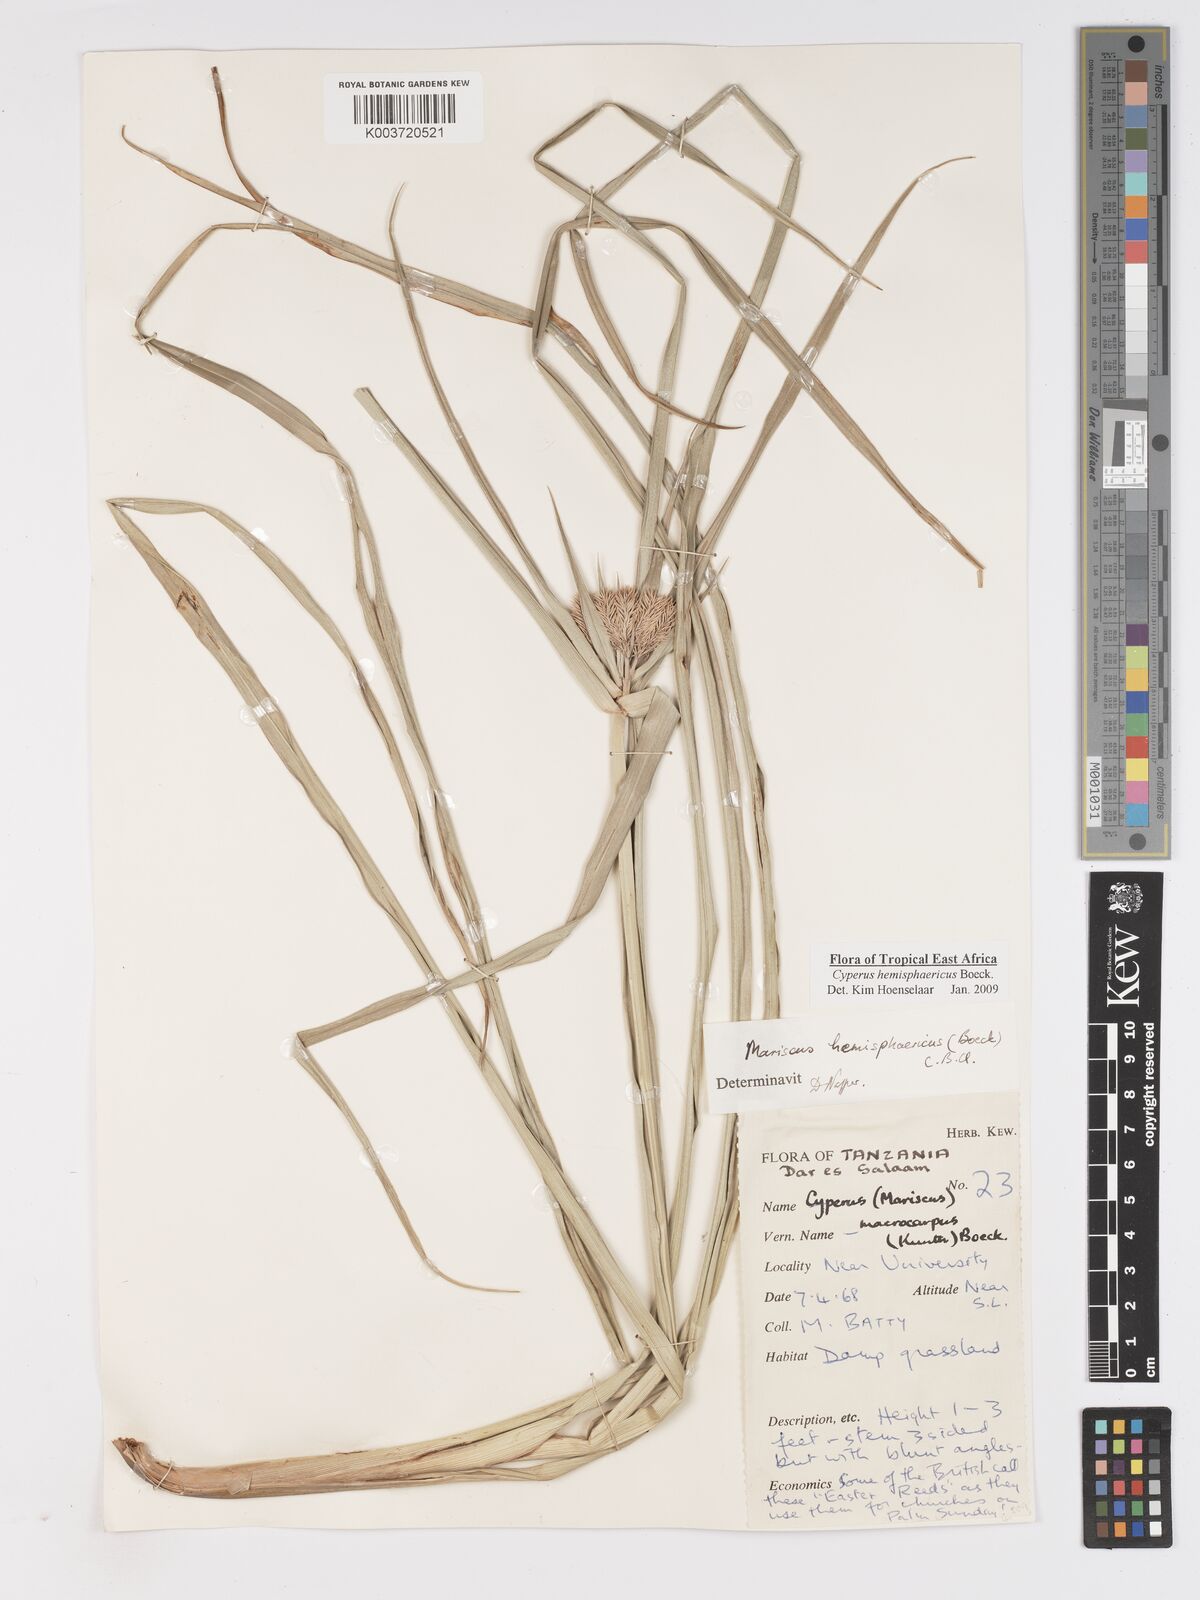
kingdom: Plantae
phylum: Tracheophyta
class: Liliopsida
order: Poales
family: Cyperaceae
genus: Cyperus
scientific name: Cyperus hemisphaericus
